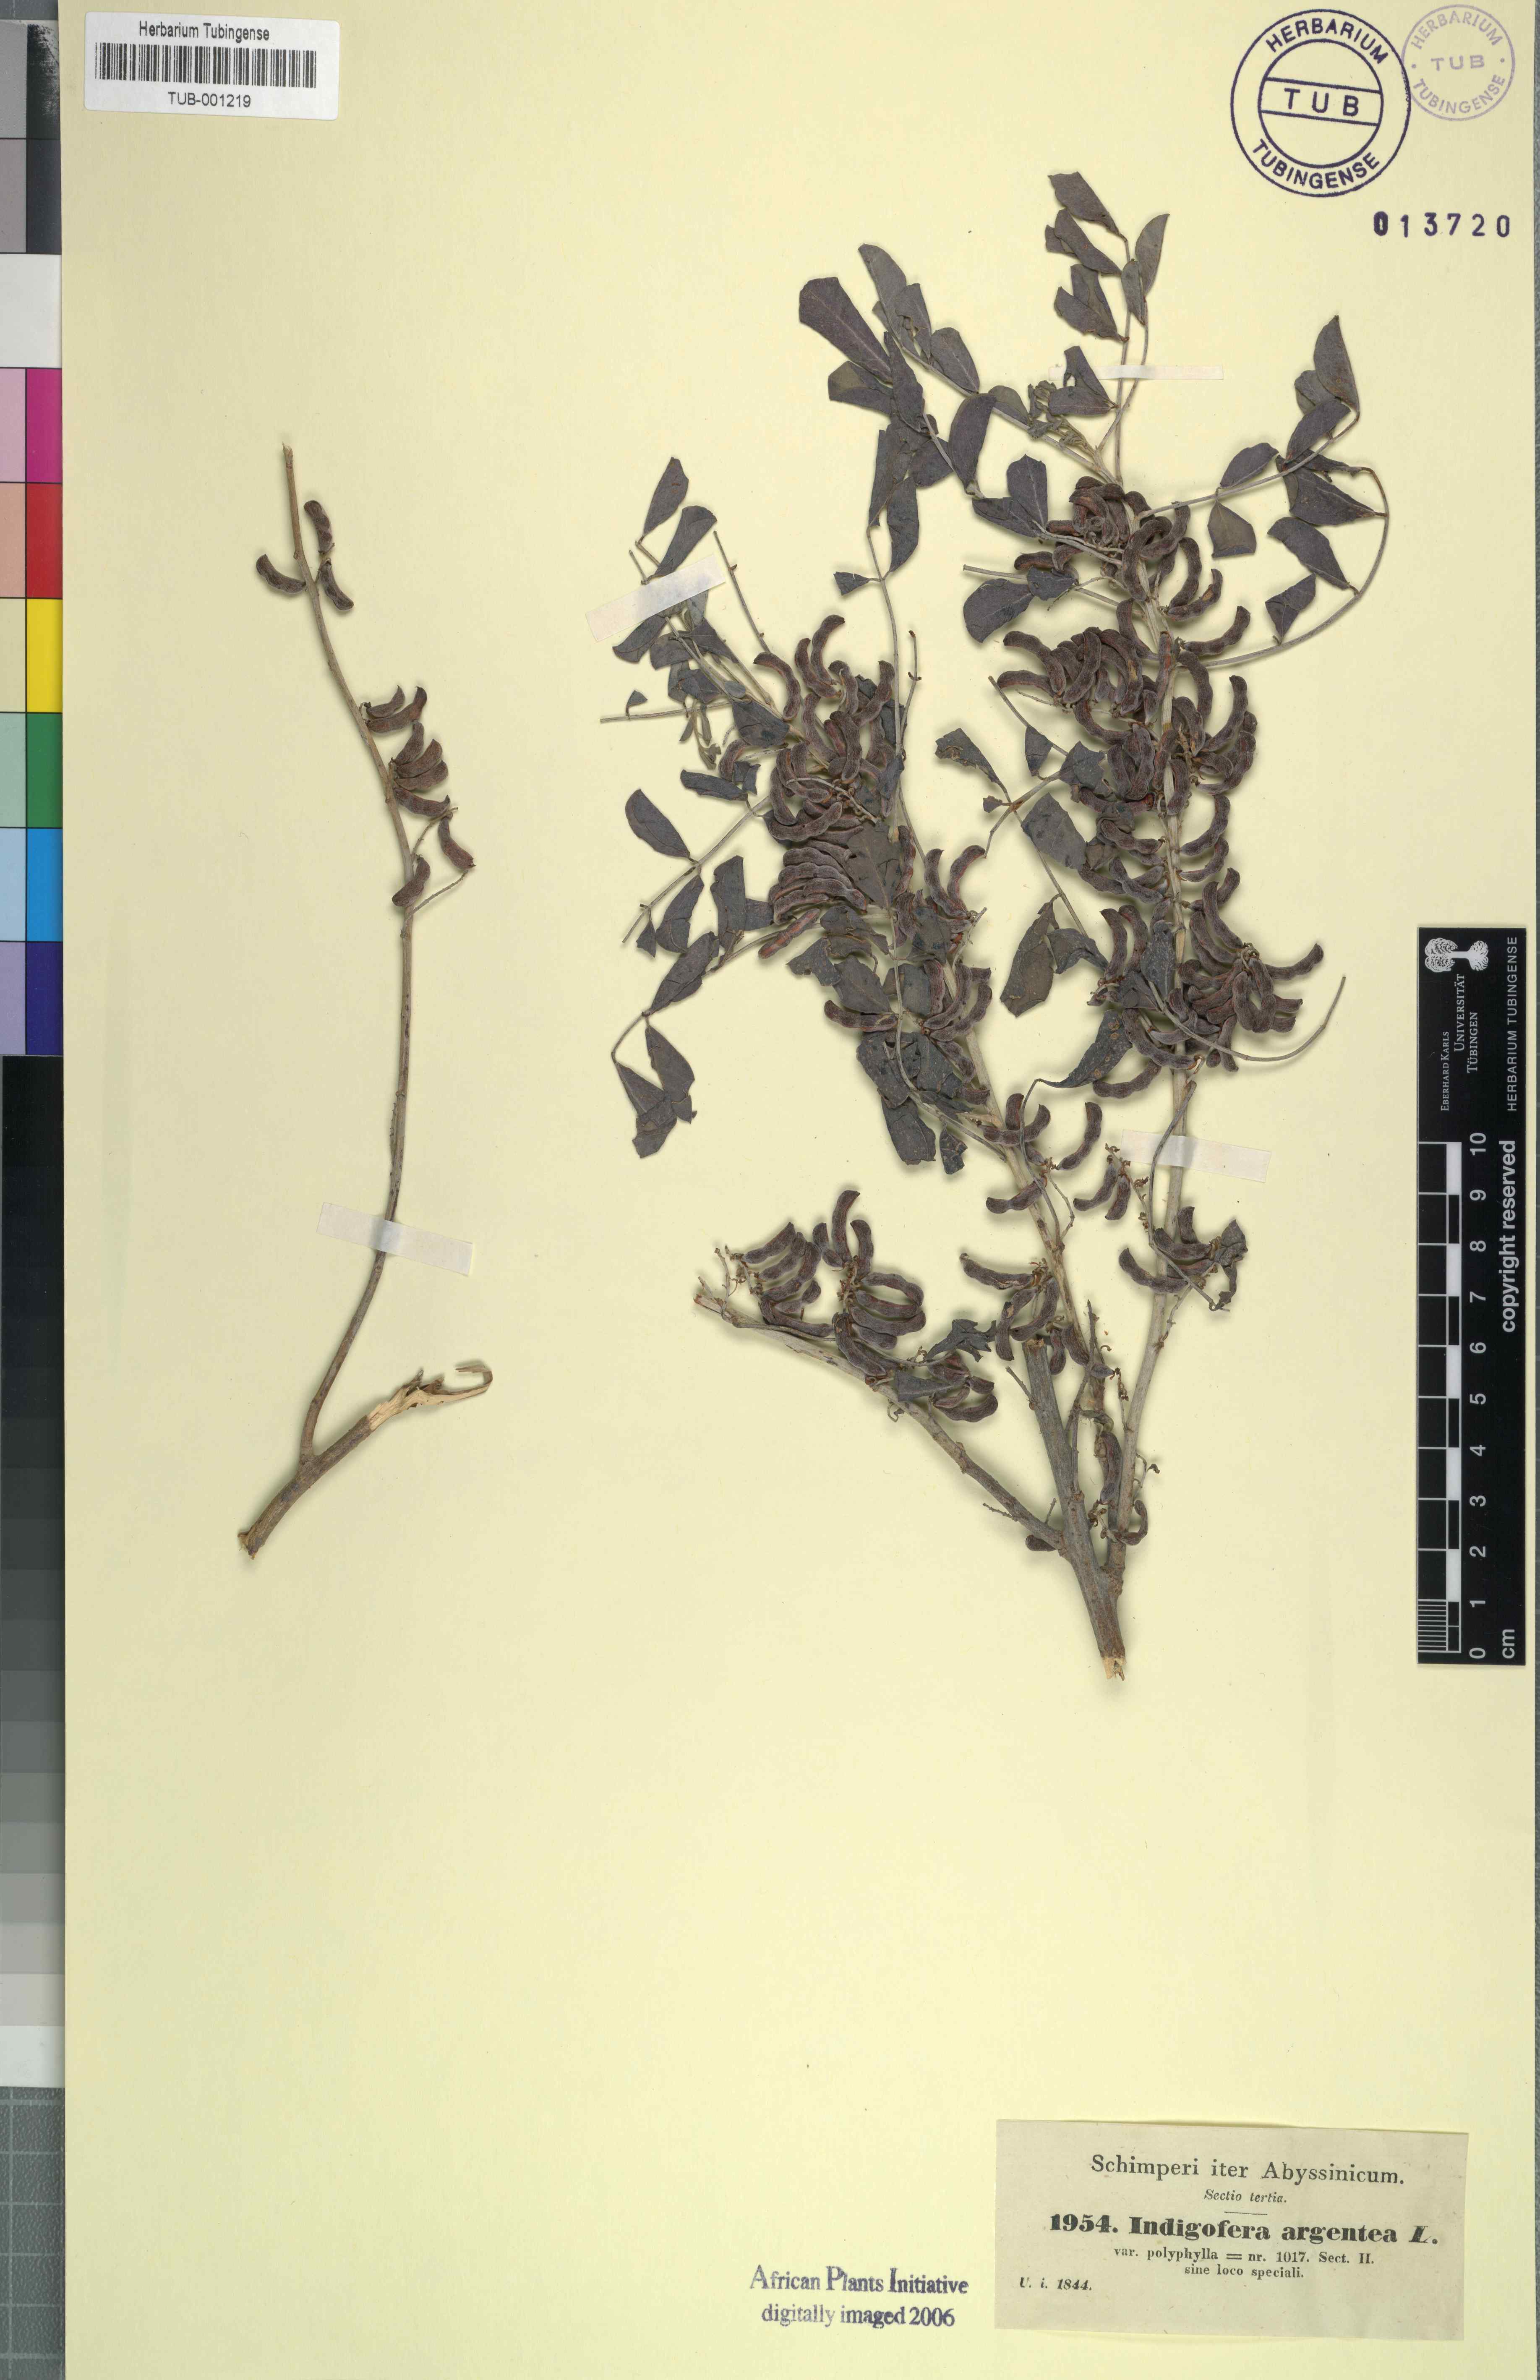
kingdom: Plantae
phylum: Tracheophyta
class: Magnoliopsida
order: Fabales
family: Fabaceae
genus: Indigofera
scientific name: Indigofera argentea
